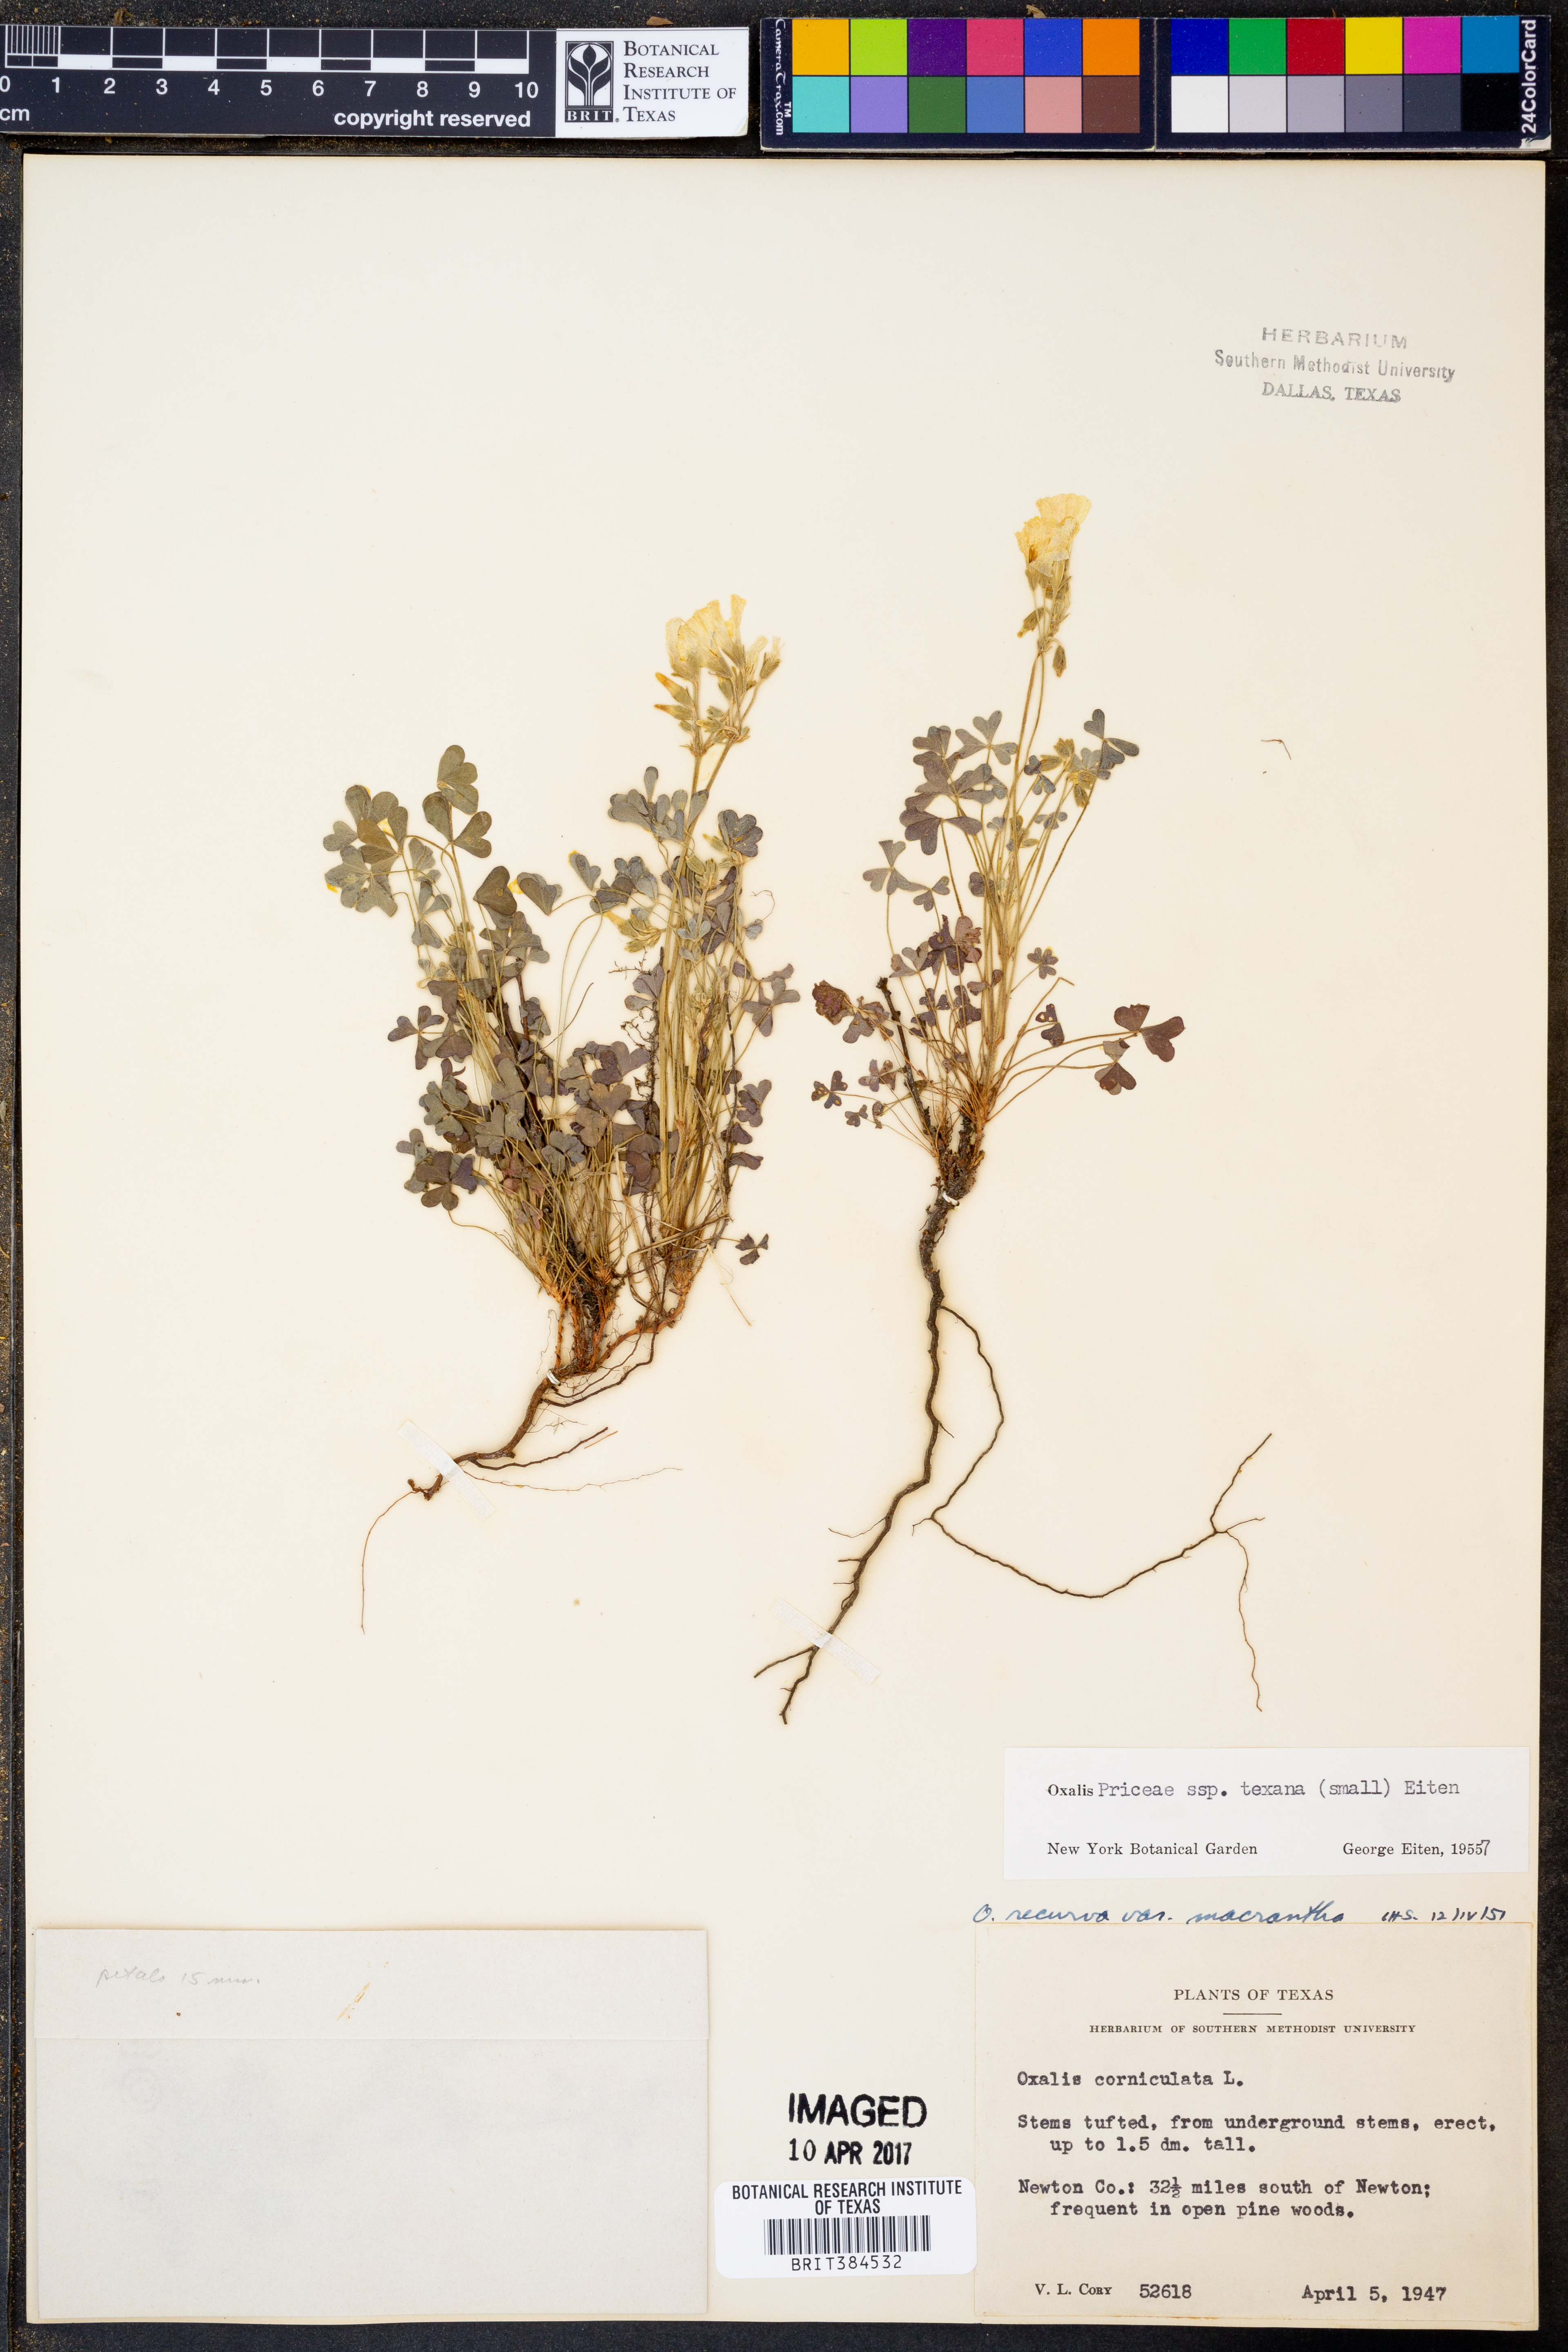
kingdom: Plantae
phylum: Tracheophyta
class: Magnoliopsida
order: Oxalidales
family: Oxalidaceae
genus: Oxalis
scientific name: Oxalis texana
